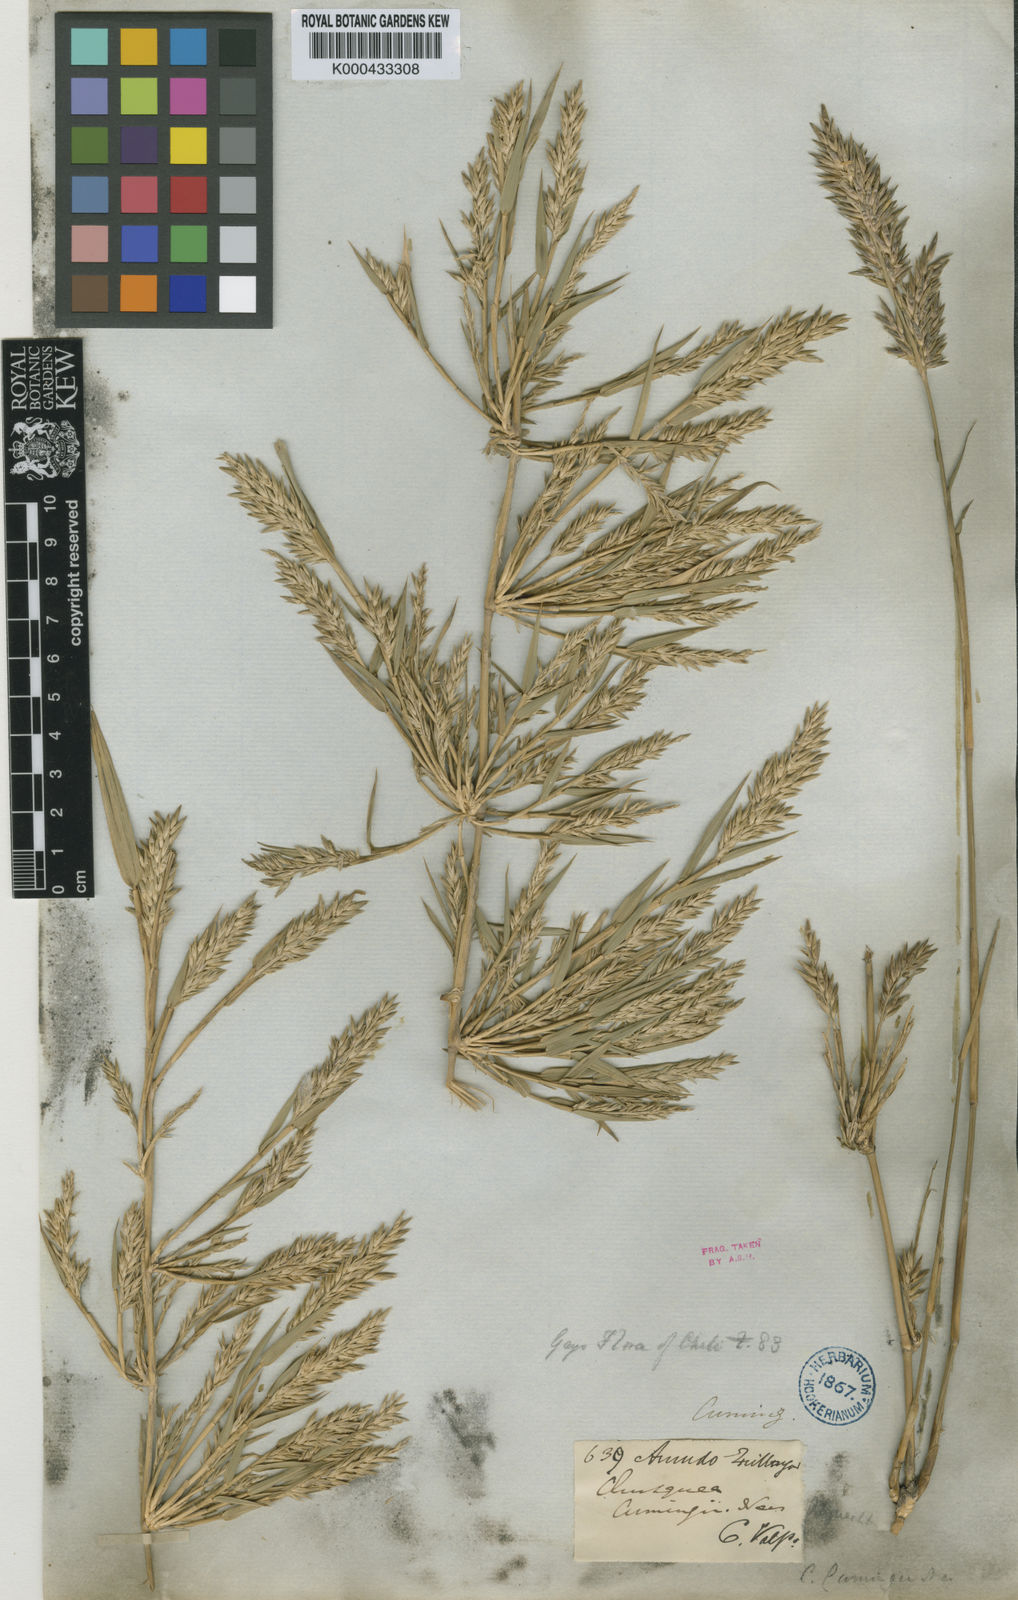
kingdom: Plantae
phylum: Tracheophyta
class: Liliopsida
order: Poales
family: Poaceae
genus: Chusquea
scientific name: Chusquea cumingii
